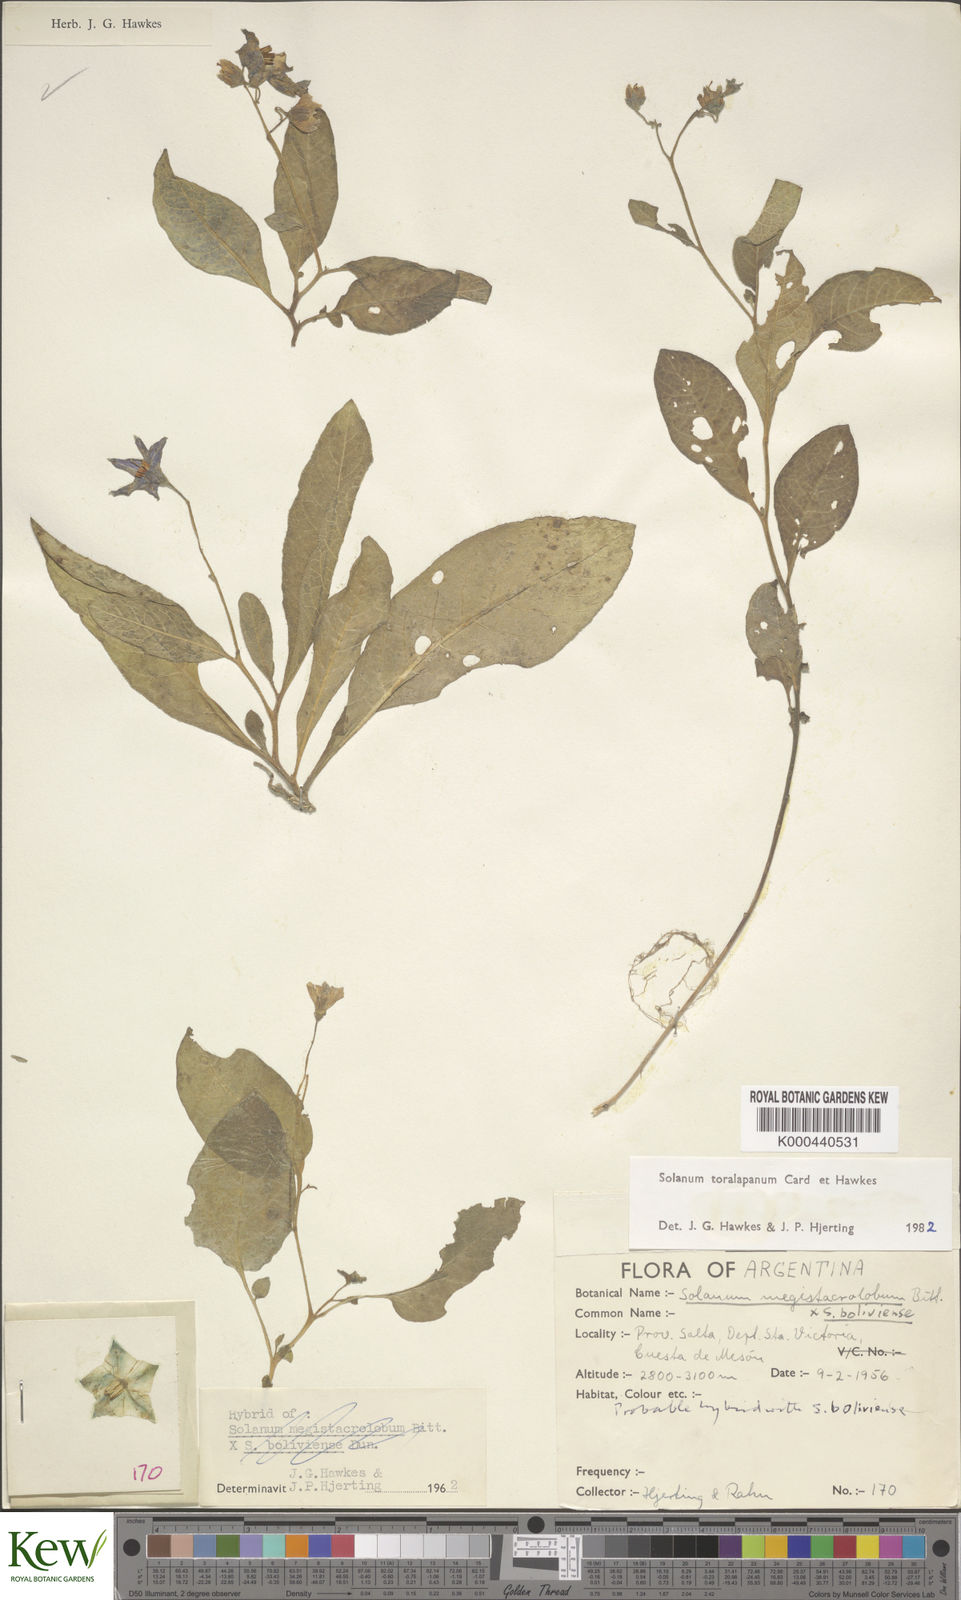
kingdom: Plantae
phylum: Tracheophyta
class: Magnoliopsida
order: Solanales
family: Solanaceae
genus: Solanum
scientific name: Solanum
